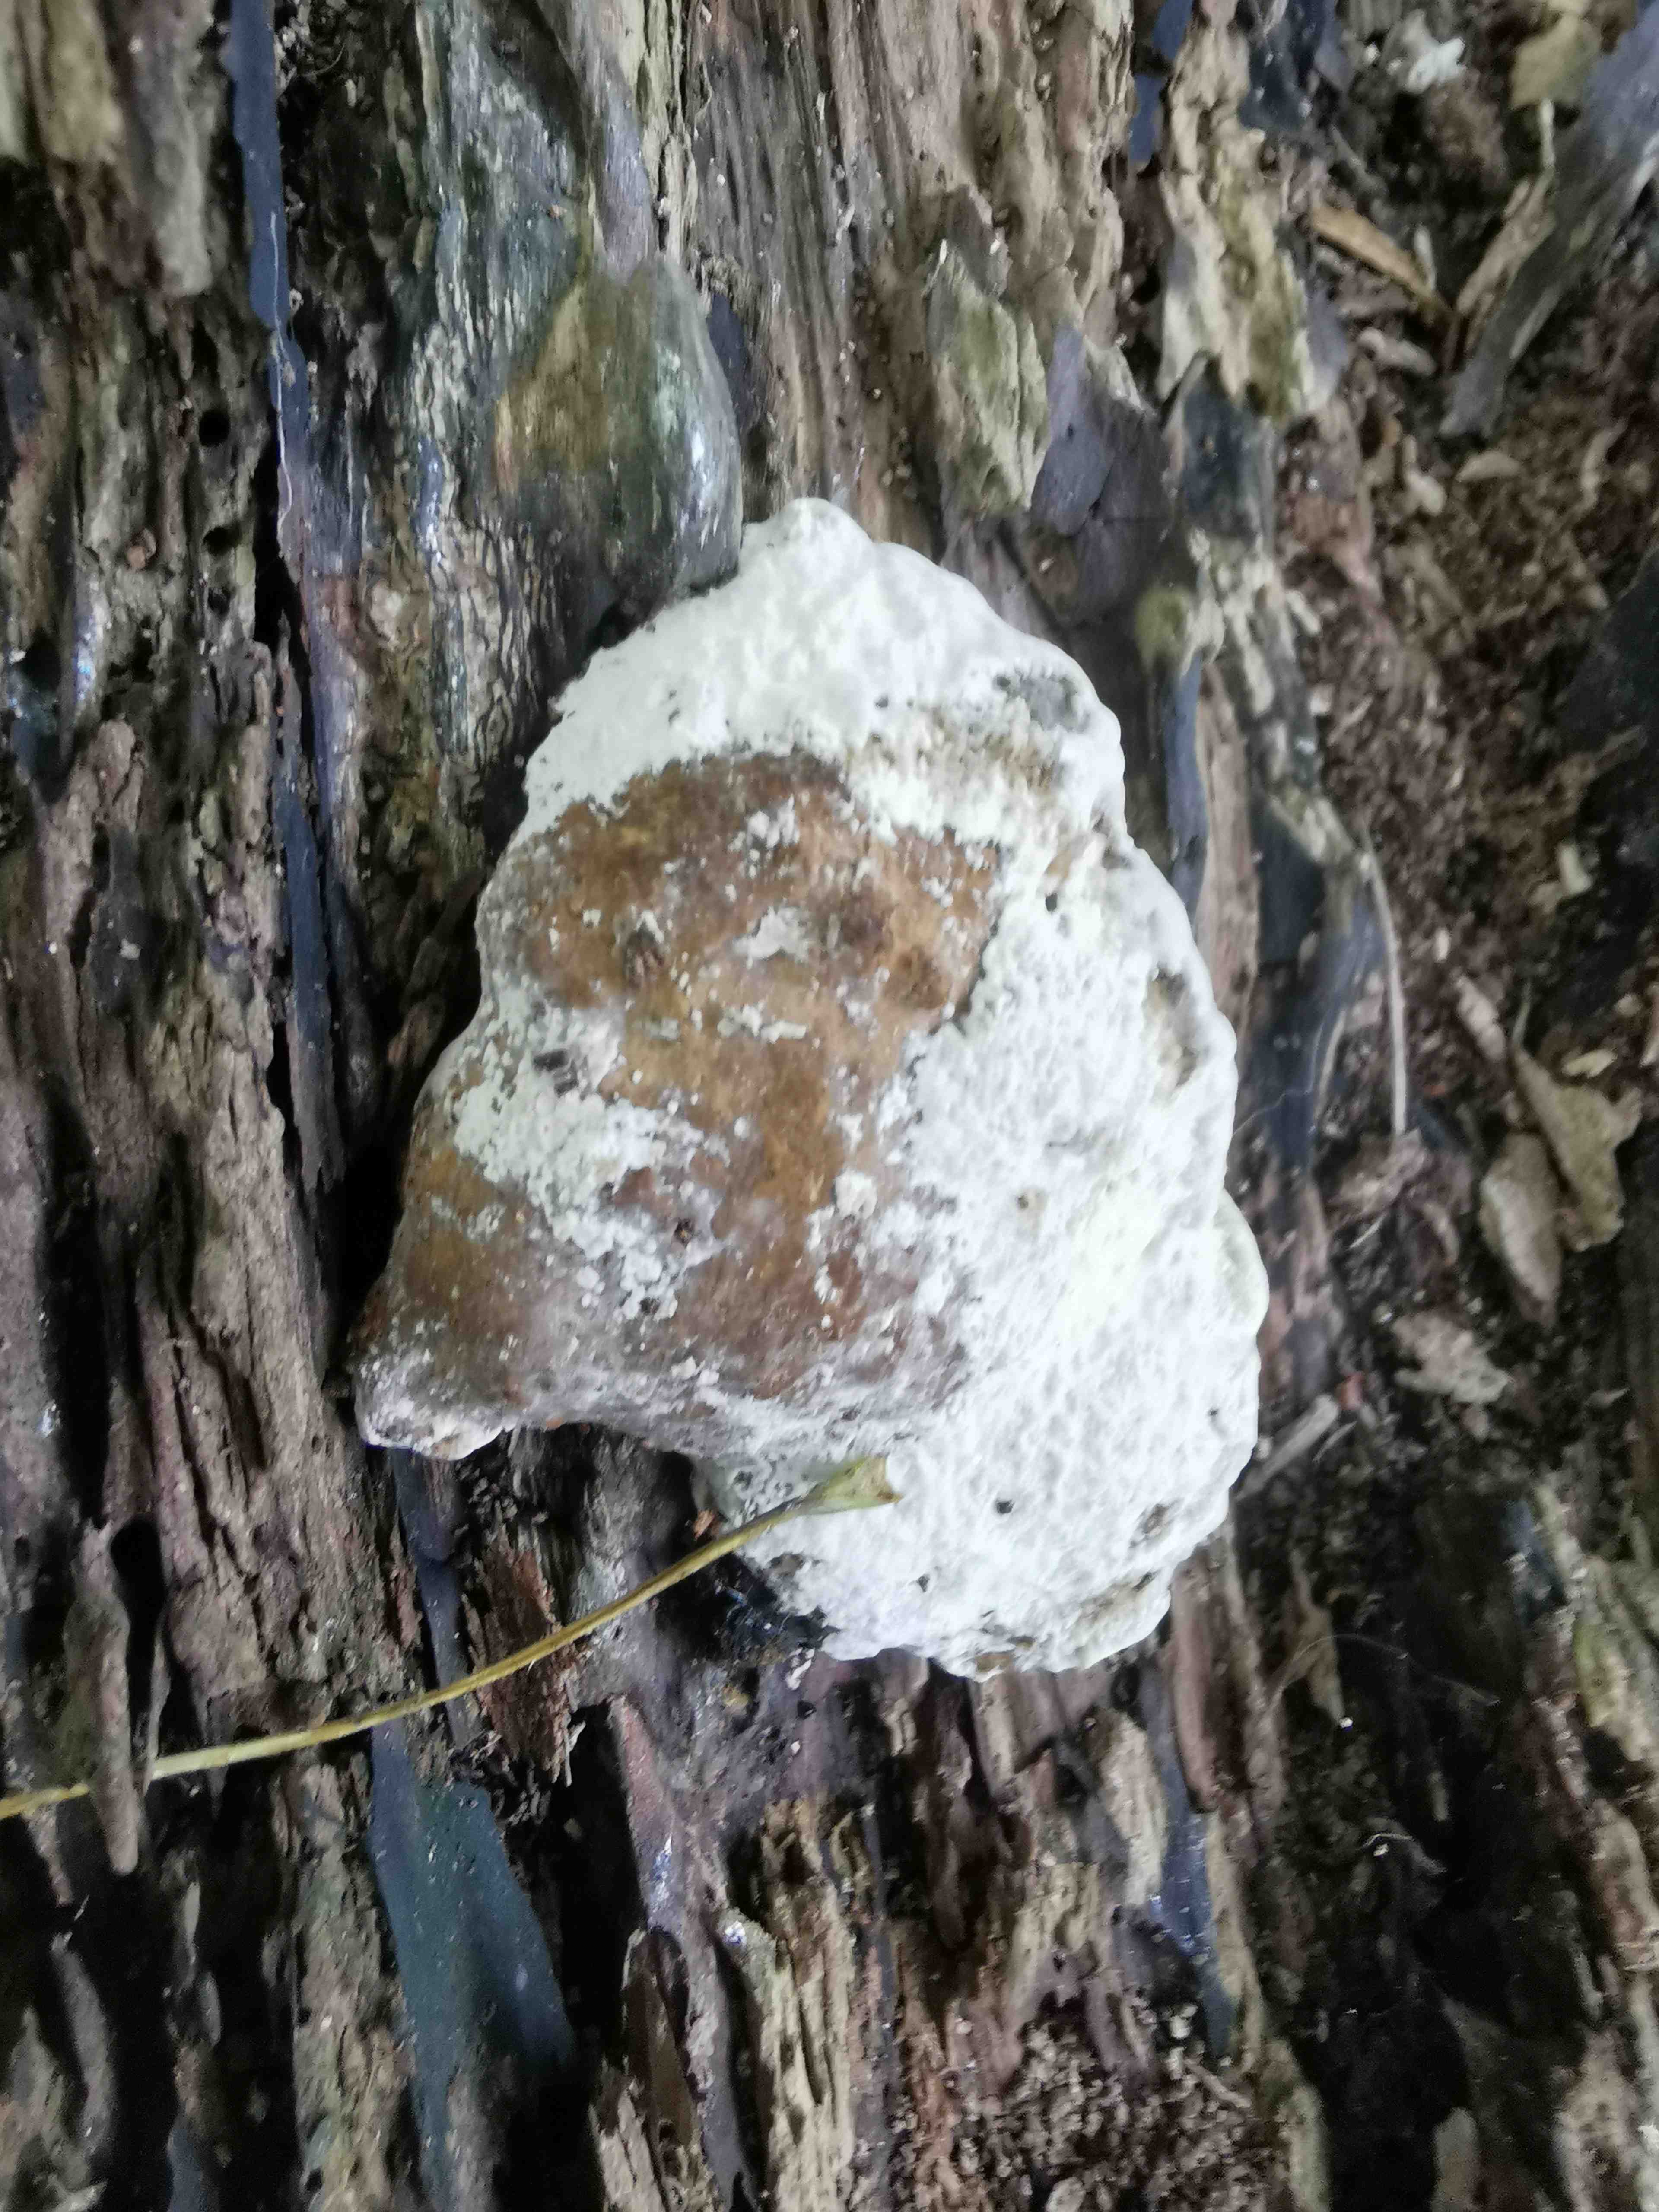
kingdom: Fungi
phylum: Basidiomycota
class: Agaricomycetes
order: Polyporales
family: Polyporaceae
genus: Daedaleopsis
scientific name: Daedaleopsis confragosa
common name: rødmende læderporesvamp
